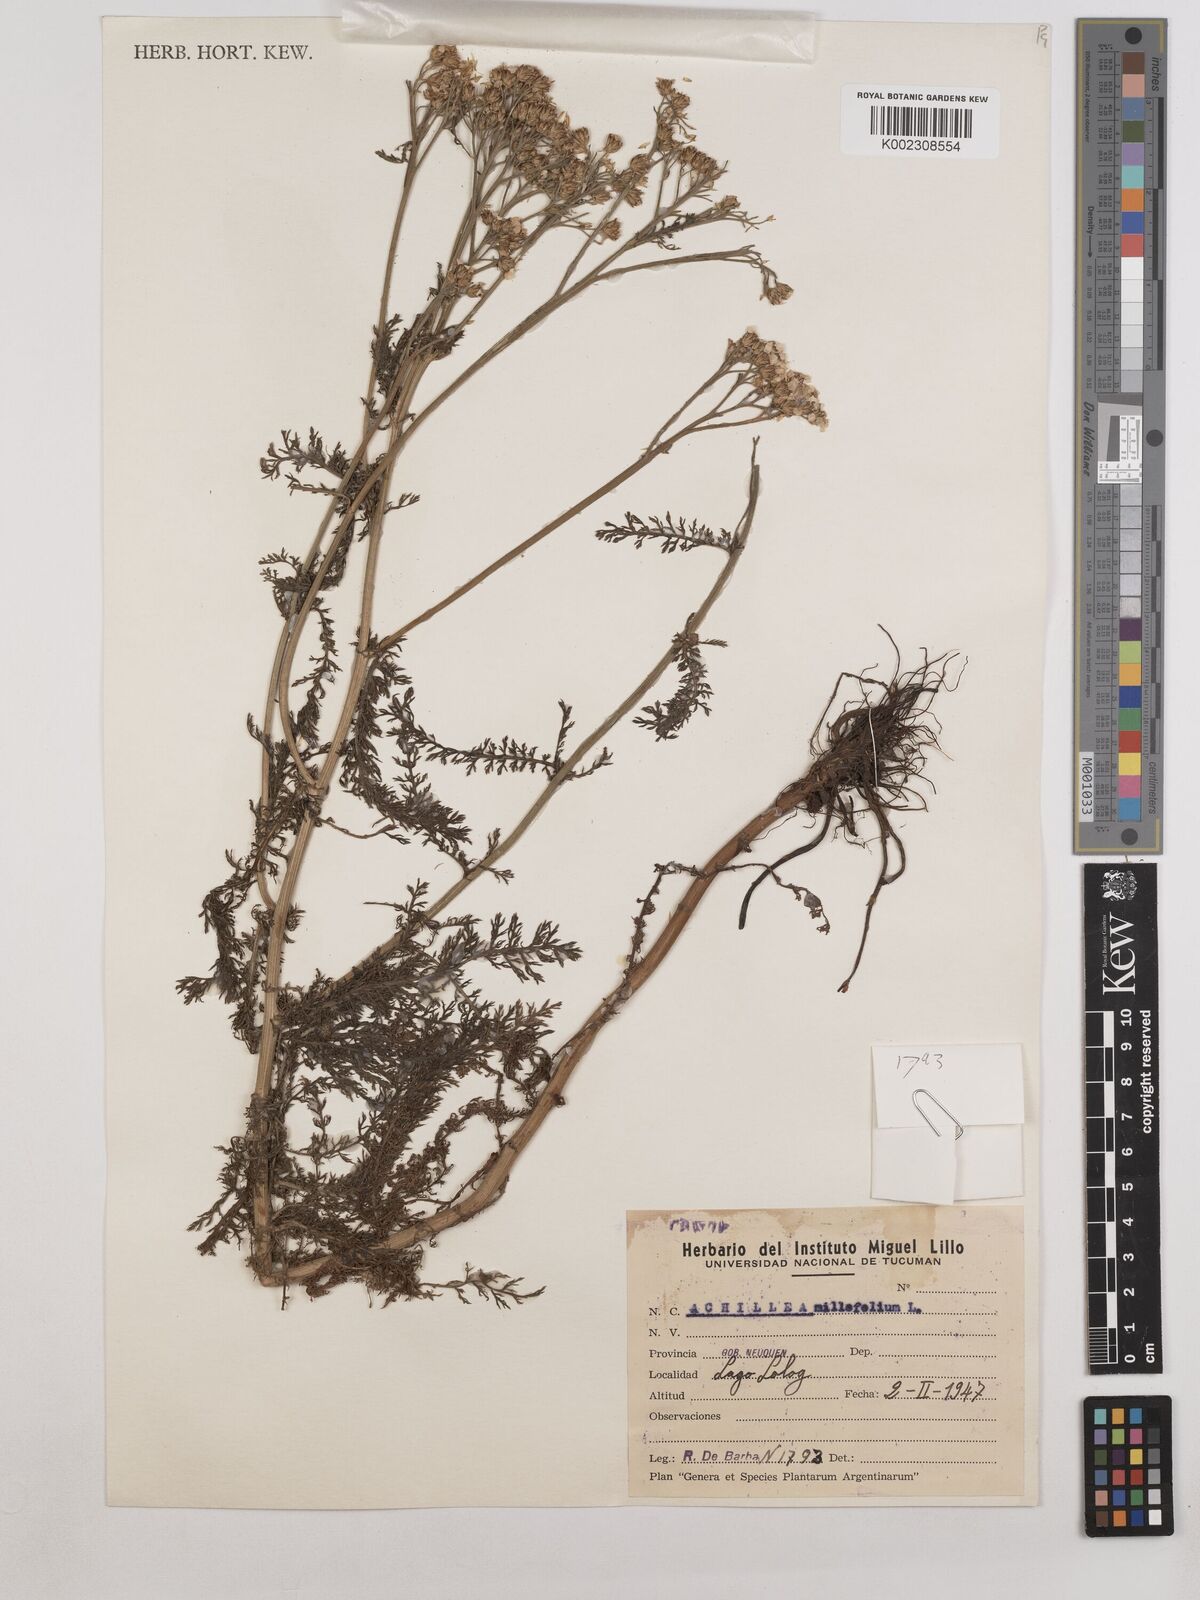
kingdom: Plantae
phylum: Tracheophyta
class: Magnoliopsida
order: Asterales
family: Asteraceae
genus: Achillea
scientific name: Achillea millefolium
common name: Yarrow
